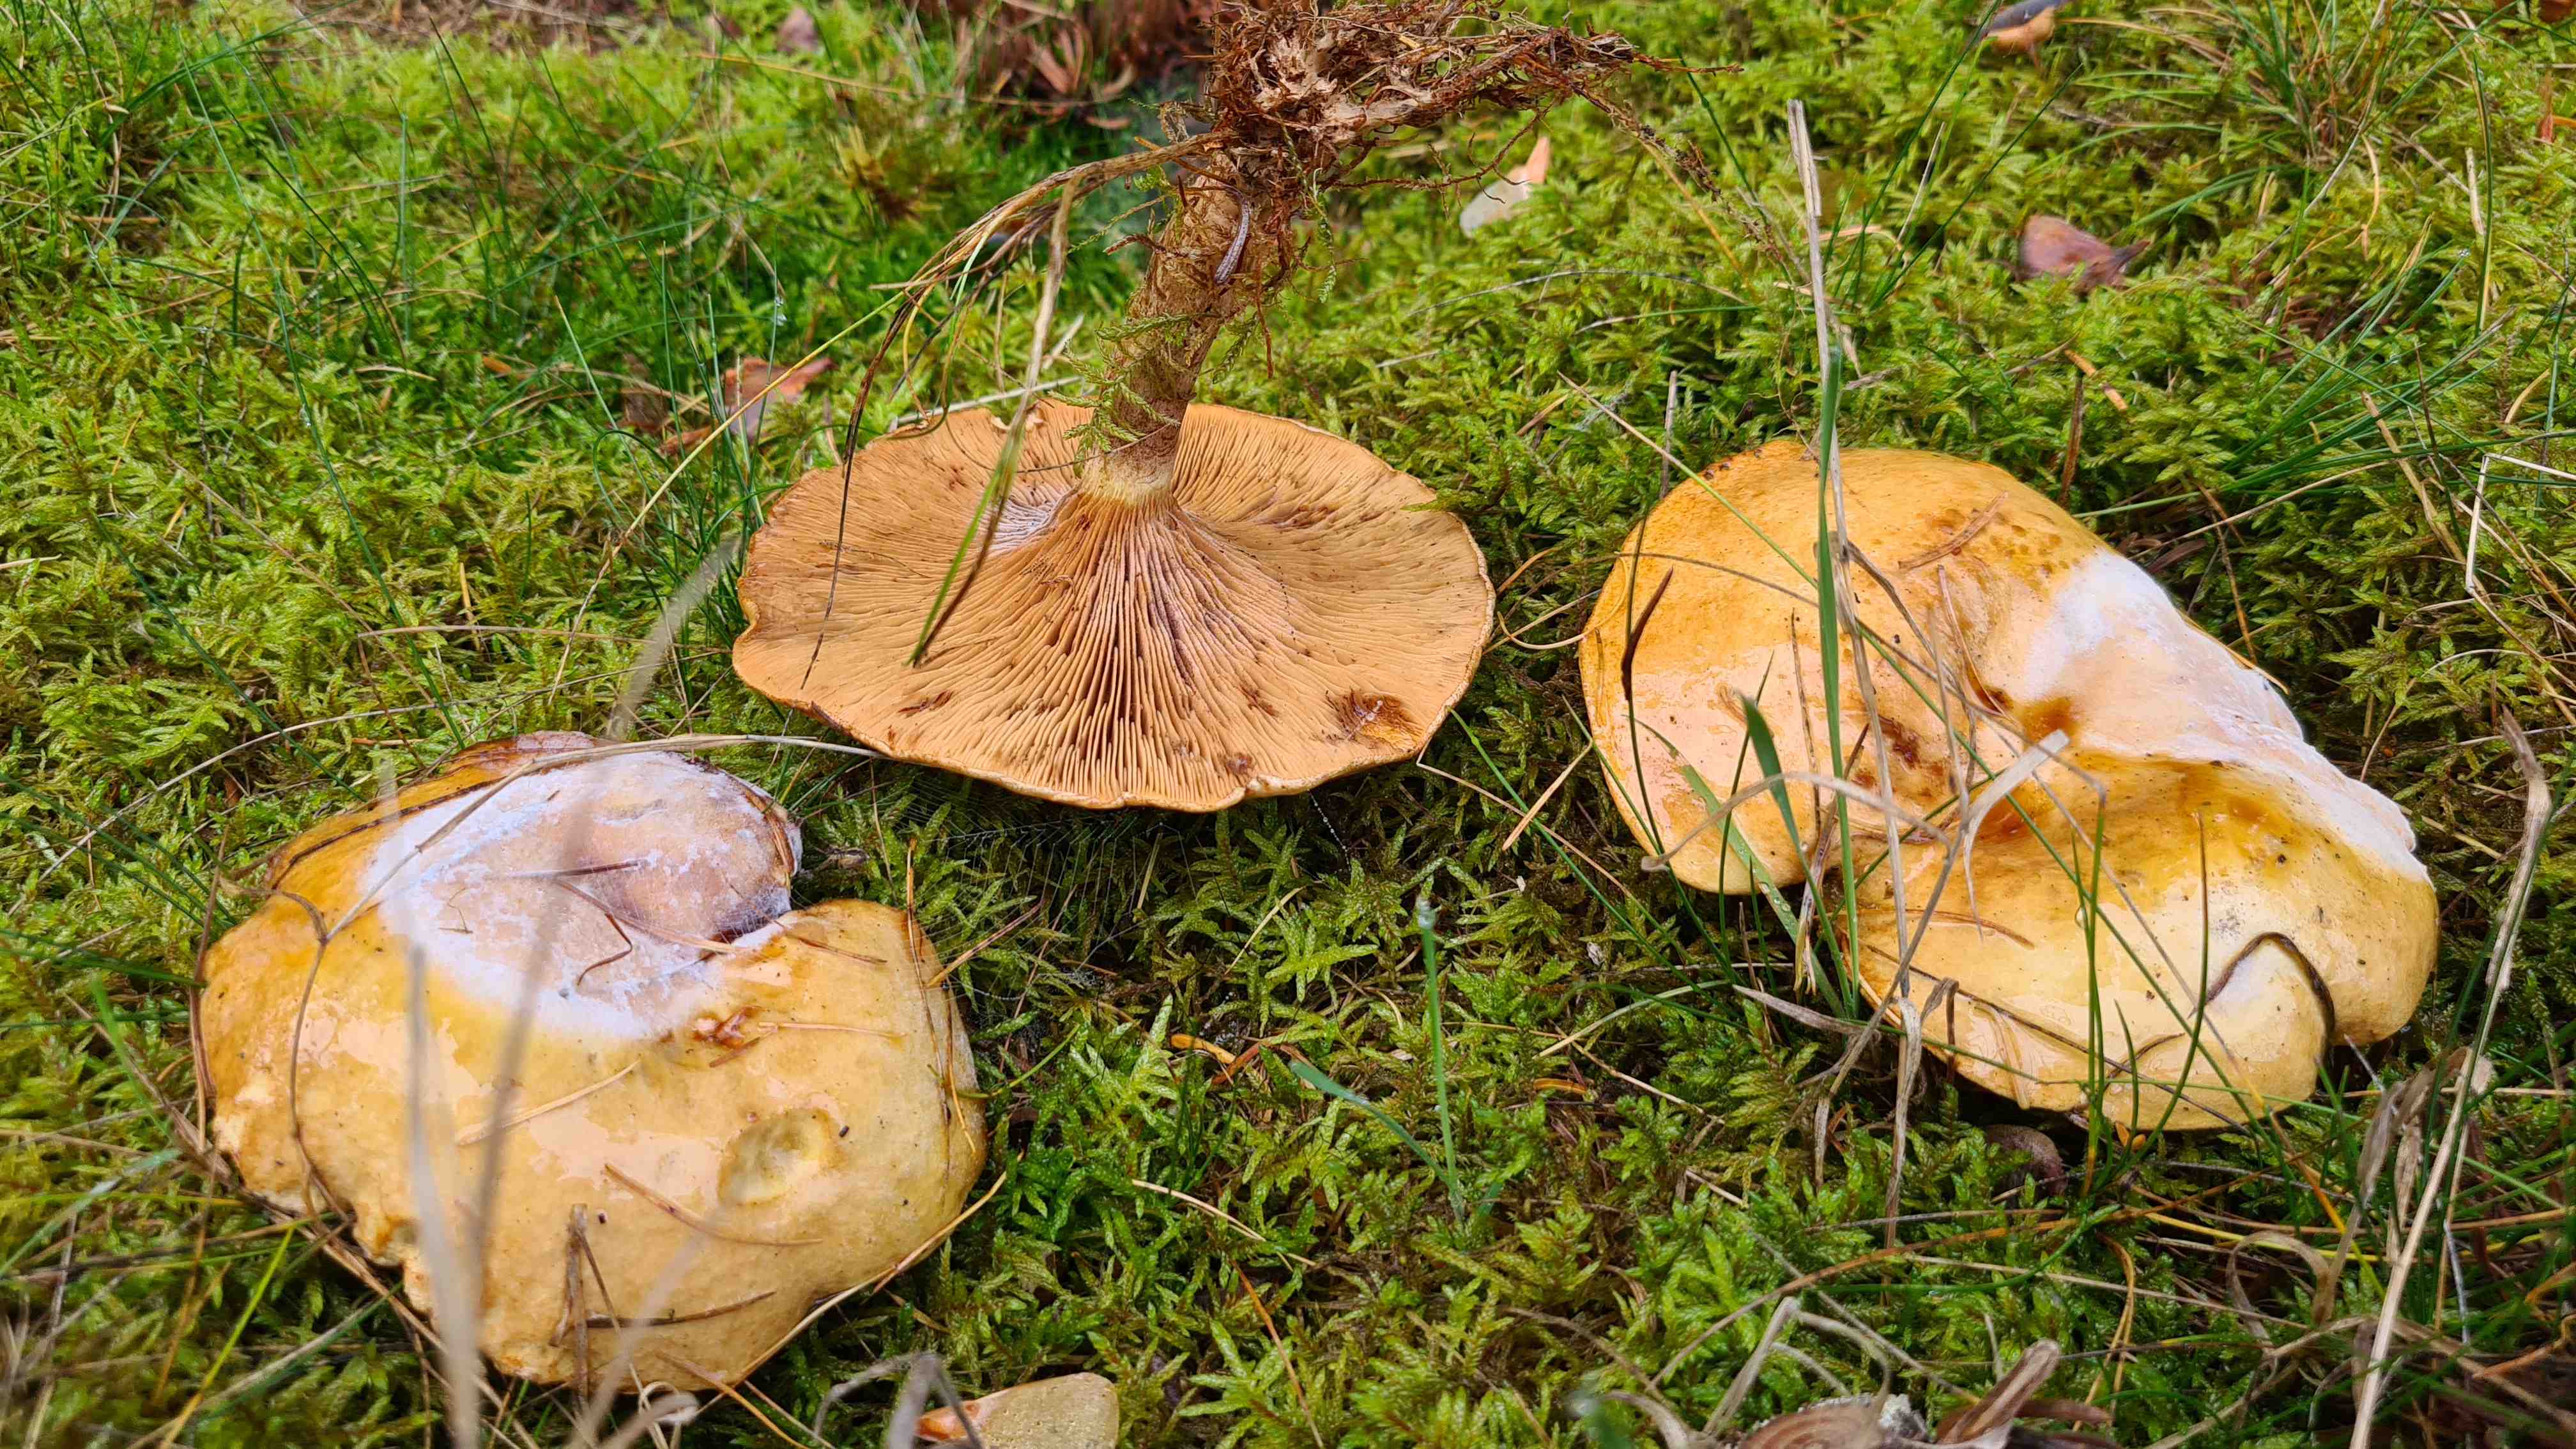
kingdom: Fungi
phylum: Basidiomycota
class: Agaricomycetes
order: Boletales
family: Paxillaceae
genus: Paxillus
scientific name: Paxillus involutus
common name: almindelig netbladhat
